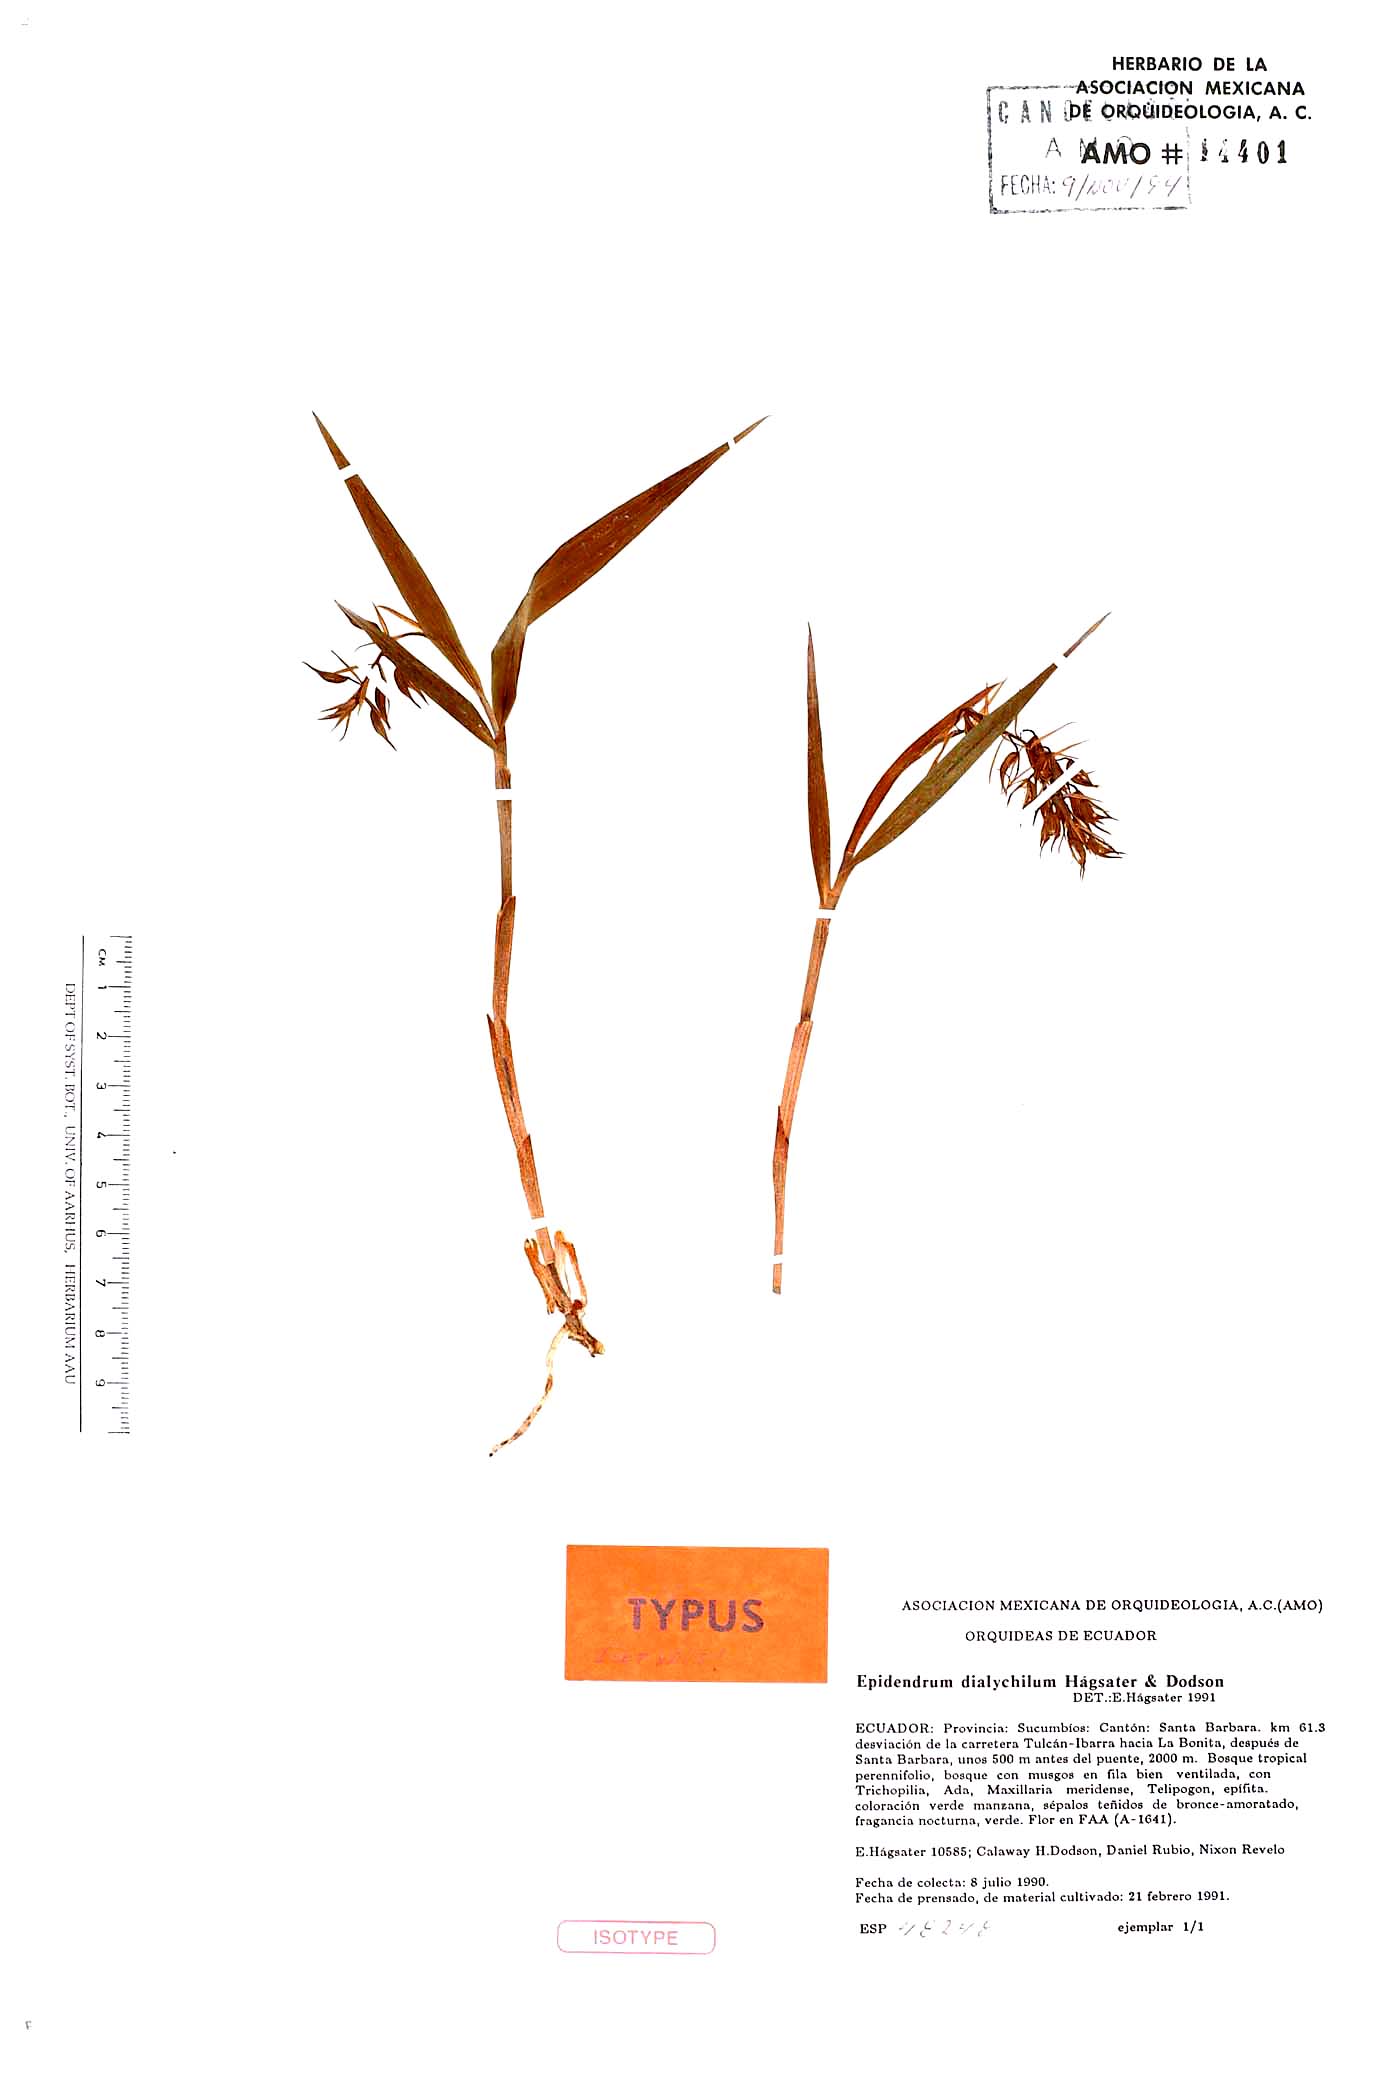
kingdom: Plantae
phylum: Tracheophyta
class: Liliopsida
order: Asparagales
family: Orchidaceae
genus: Epidendrum
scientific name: Epidendrum dialychilum
